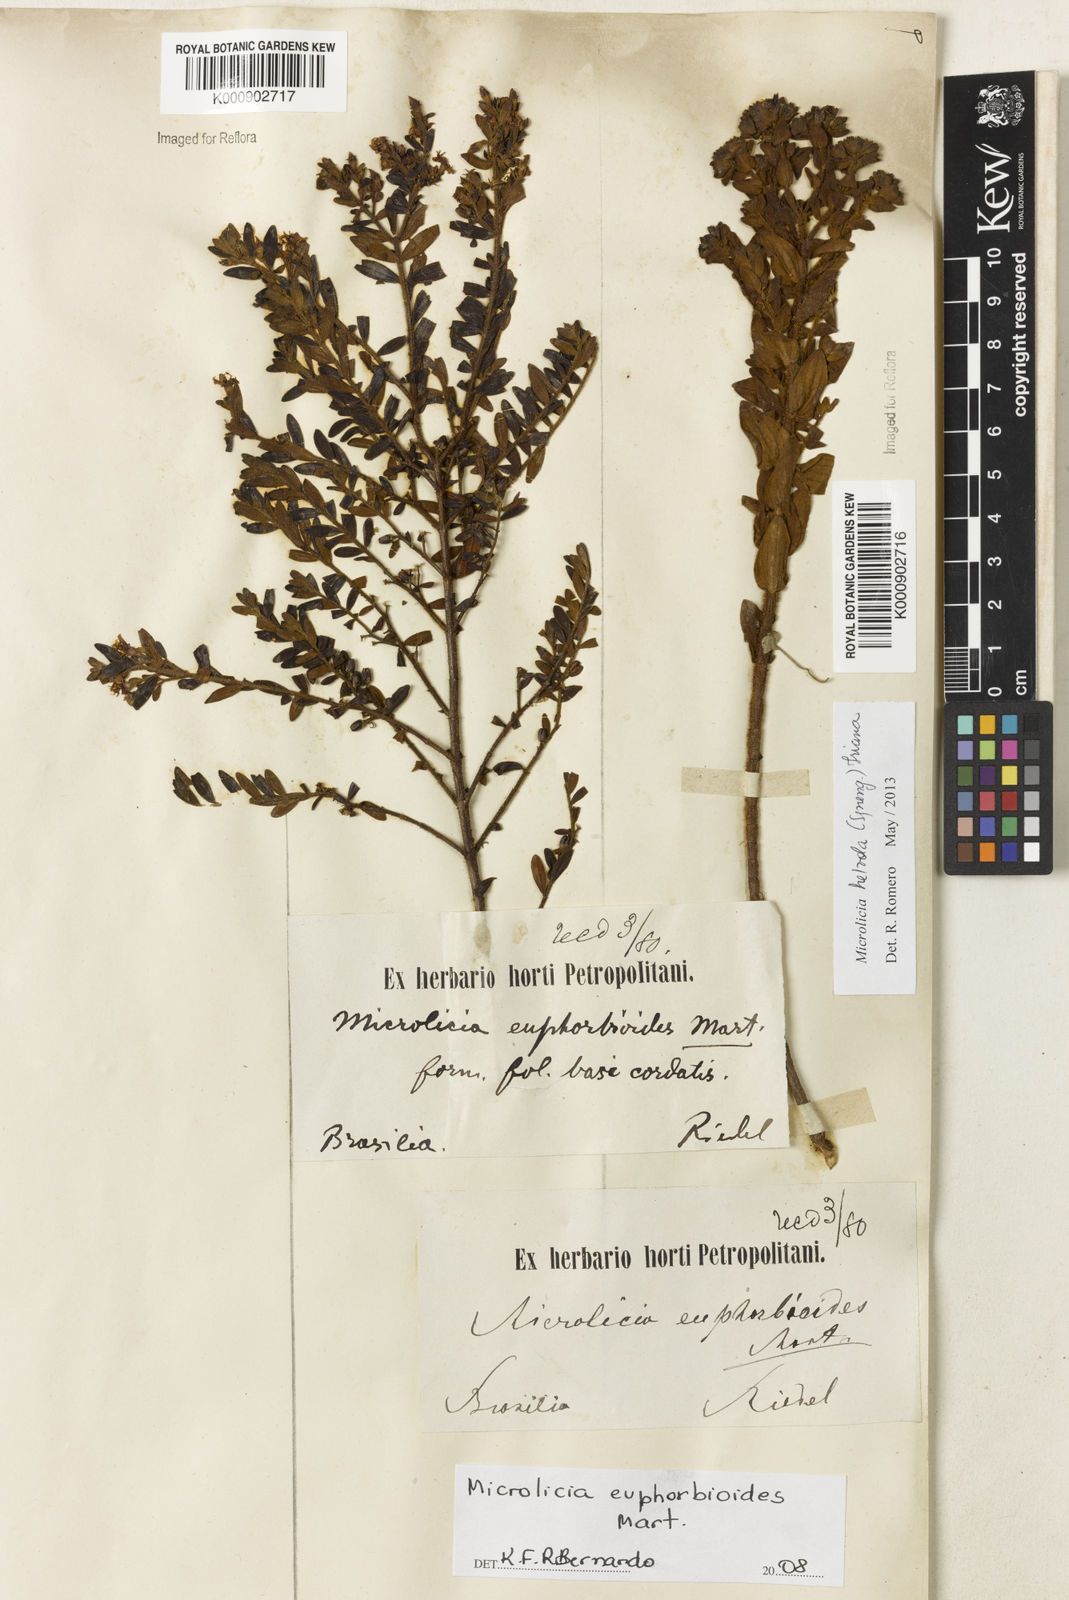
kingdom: Plantae
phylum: Tracheophyta
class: Magnoliopsida
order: Myrtales
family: Melastomataceae
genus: Microlicia
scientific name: Microlicia euphorbioides
